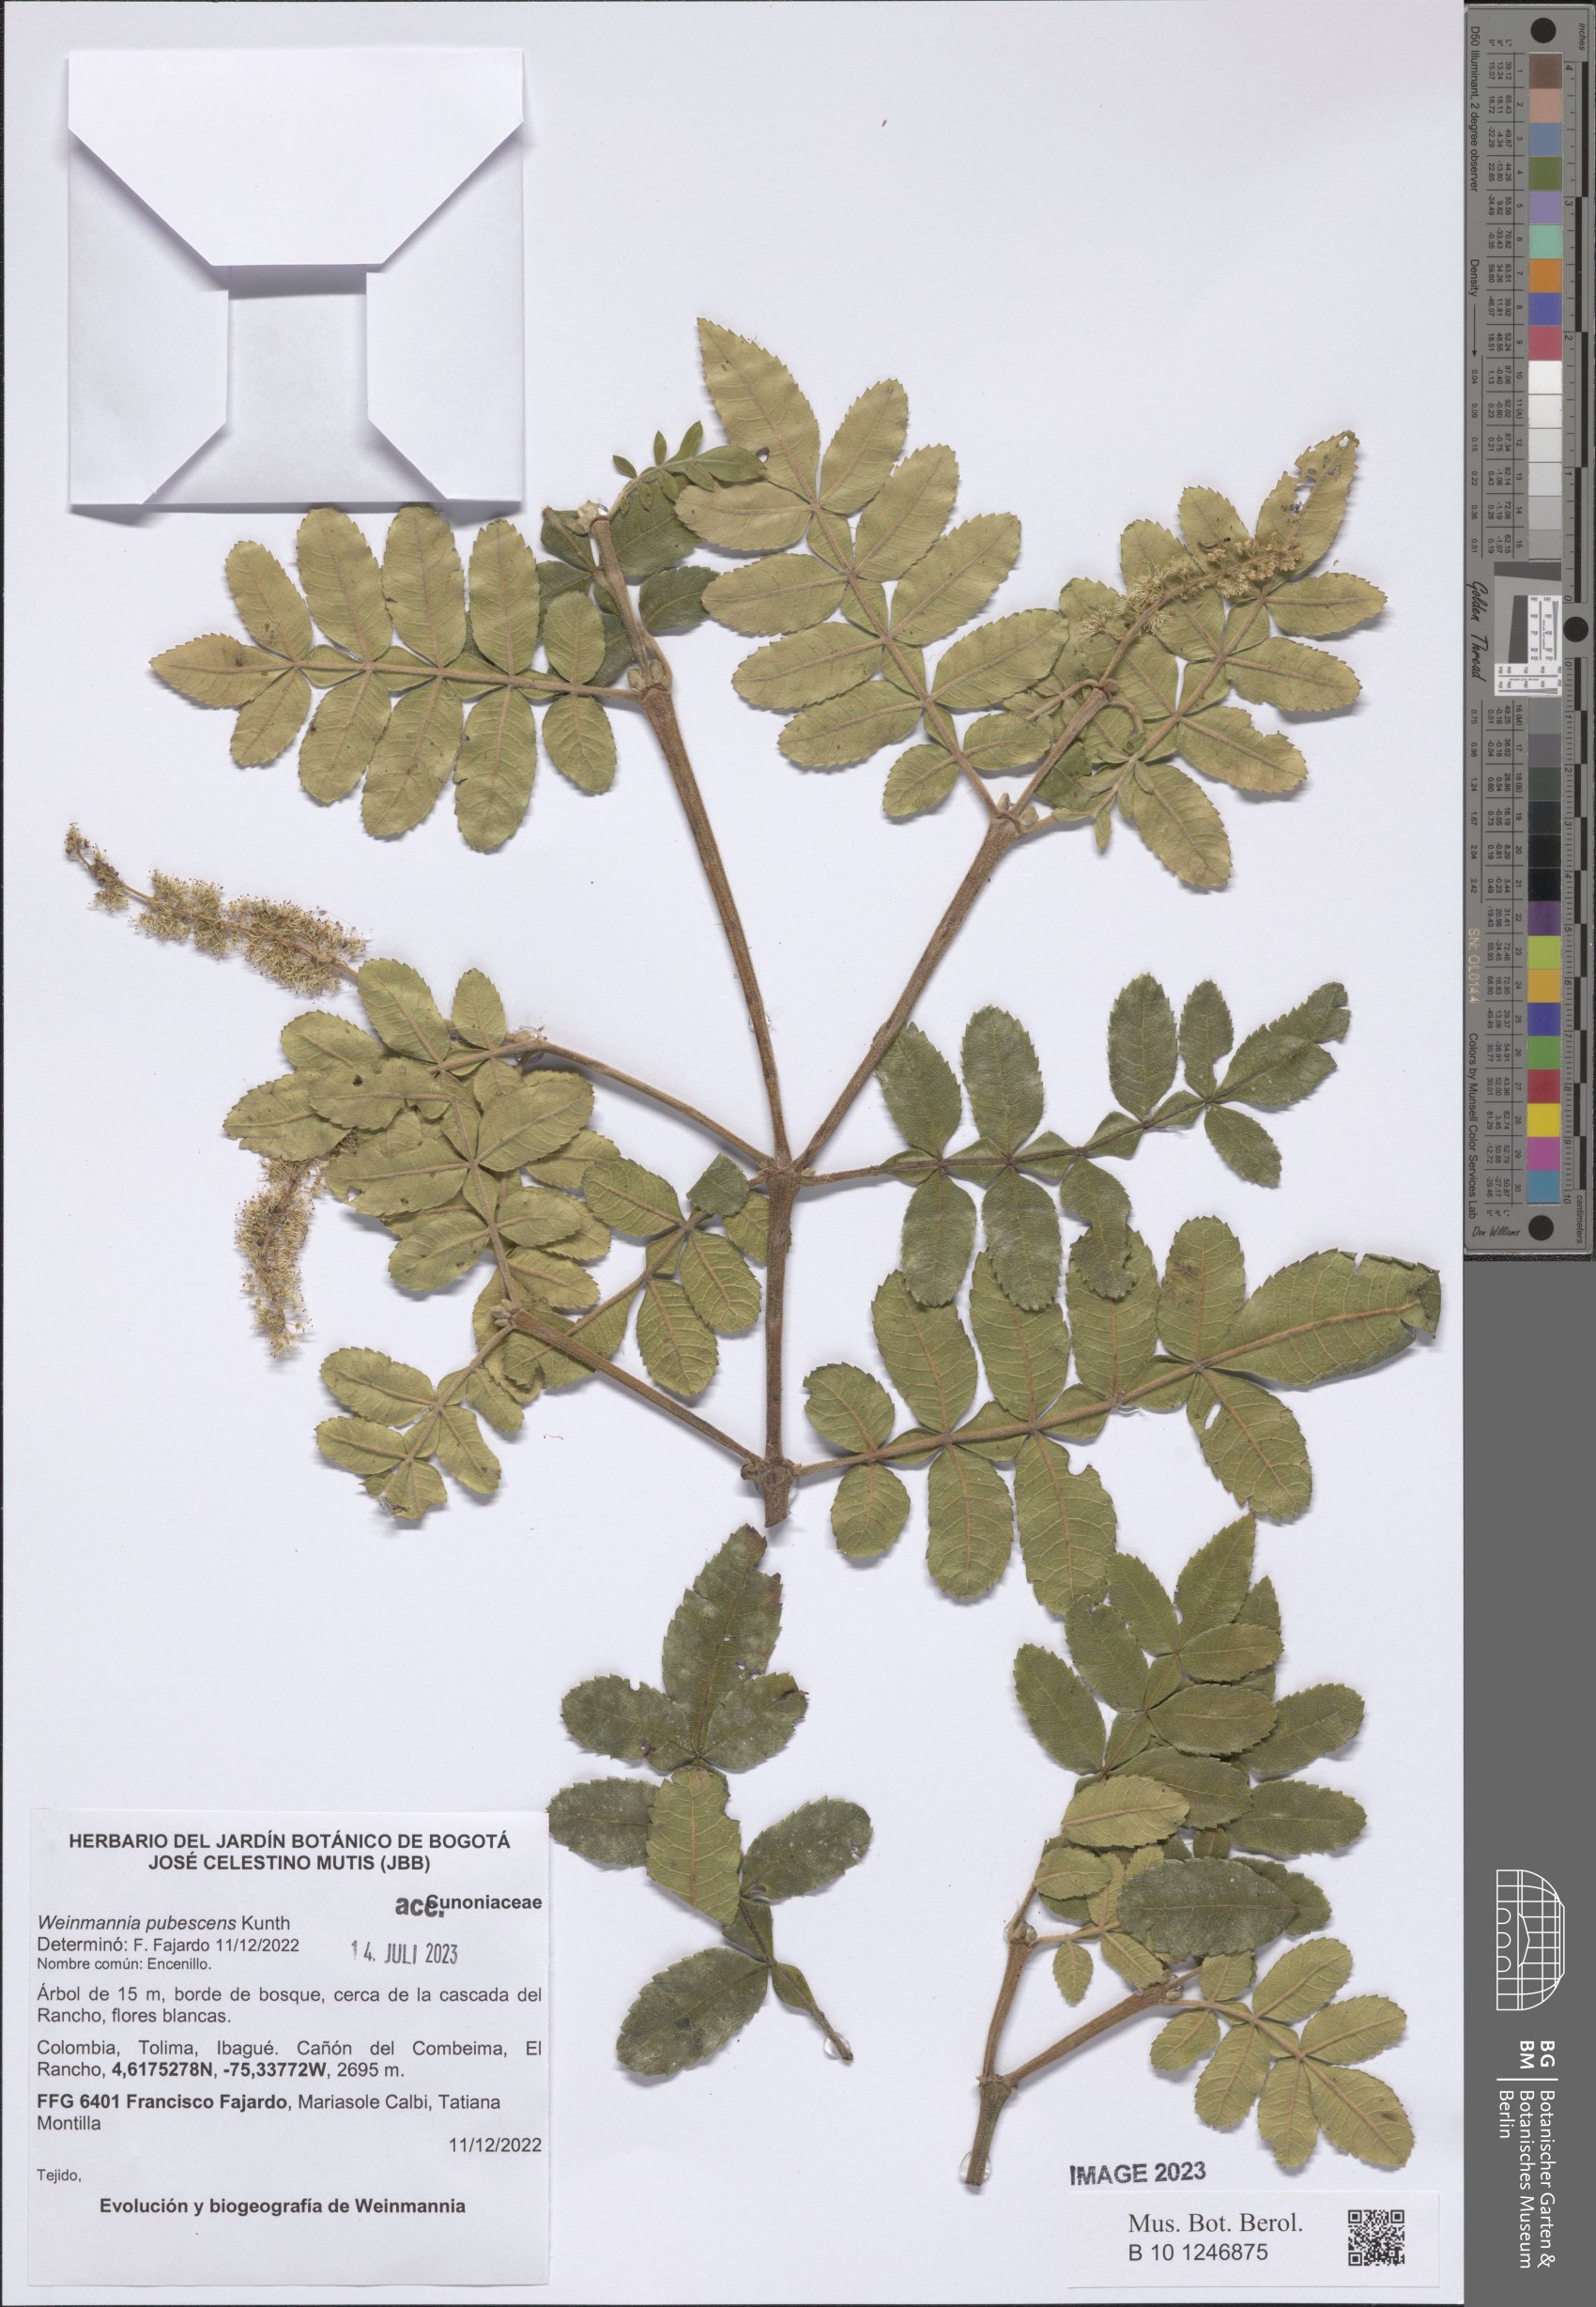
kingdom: Plantae
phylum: Tracheophyta
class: Magnoliopsida
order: Oxalidales
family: Cunoniaceae
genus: Weinmannia
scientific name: Weinmannia pubescens
